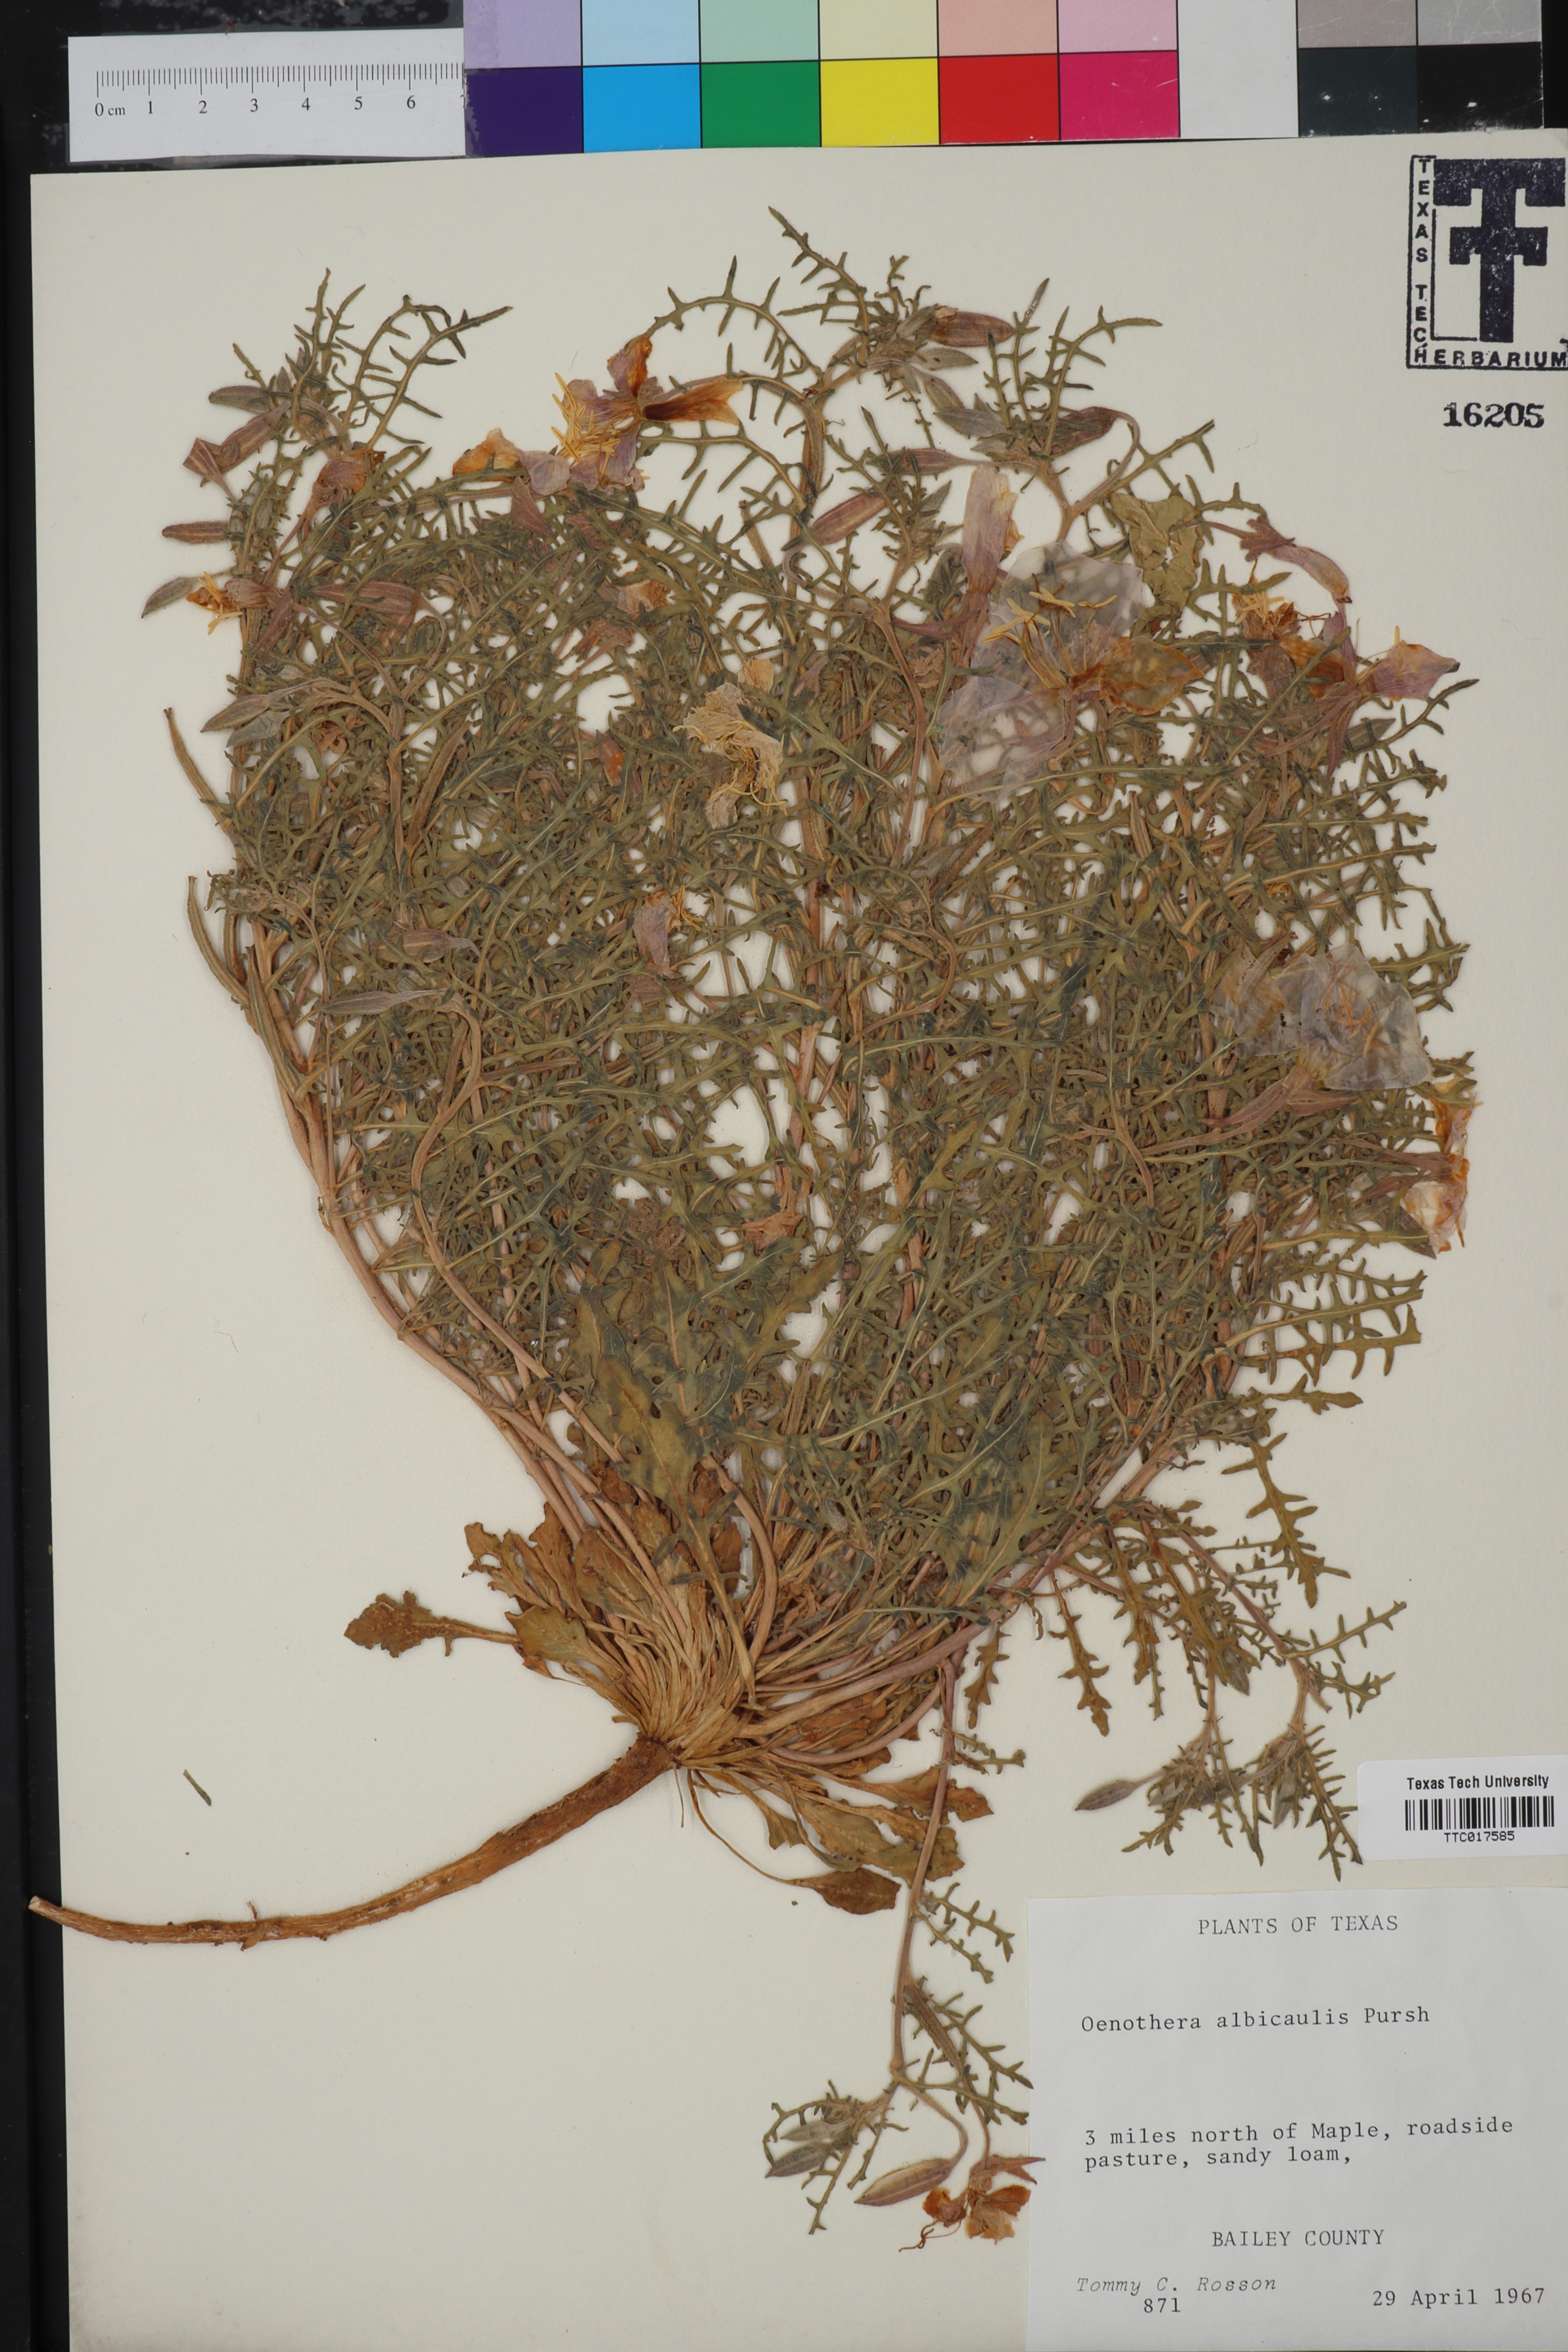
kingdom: Plantae
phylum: Tracheophyta
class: Magnoliopsida
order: Myrtales
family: Onagraceae
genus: Oenothera
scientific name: Oenothera albicaulis
